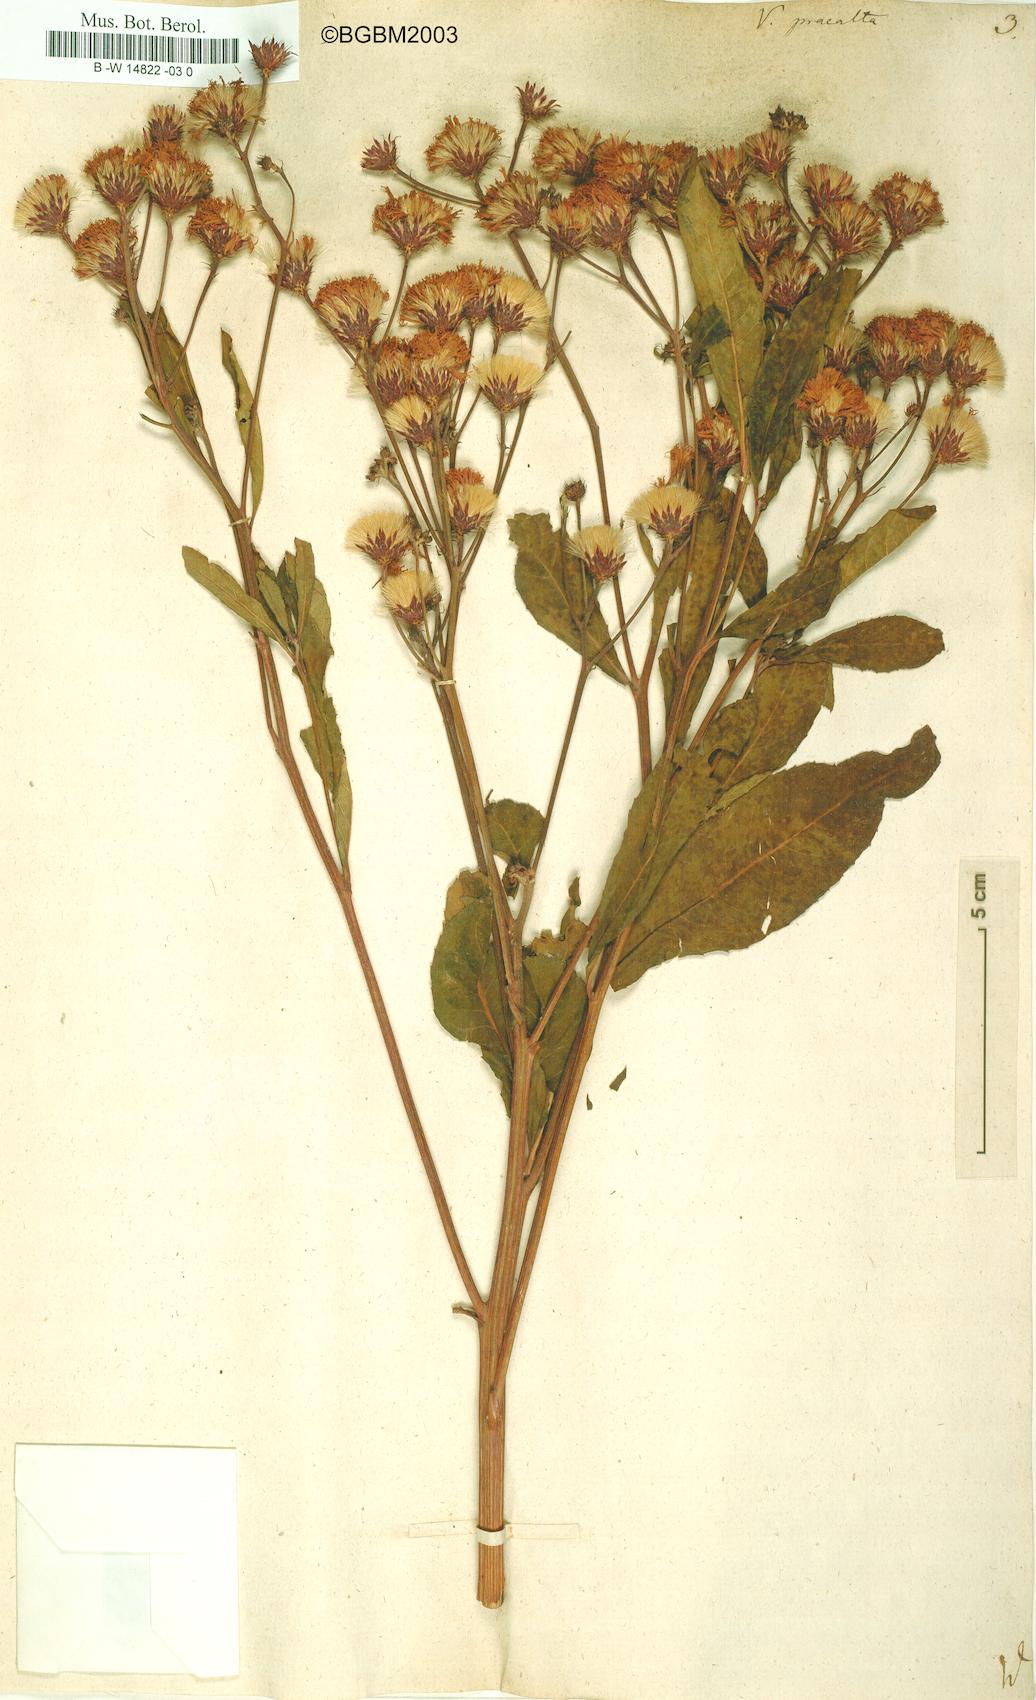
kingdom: Plantae
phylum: Tracheophyta
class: Magnoliopsida
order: Asterales
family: Asteraceae
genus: Vernonia
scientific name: Vernonia praealta
